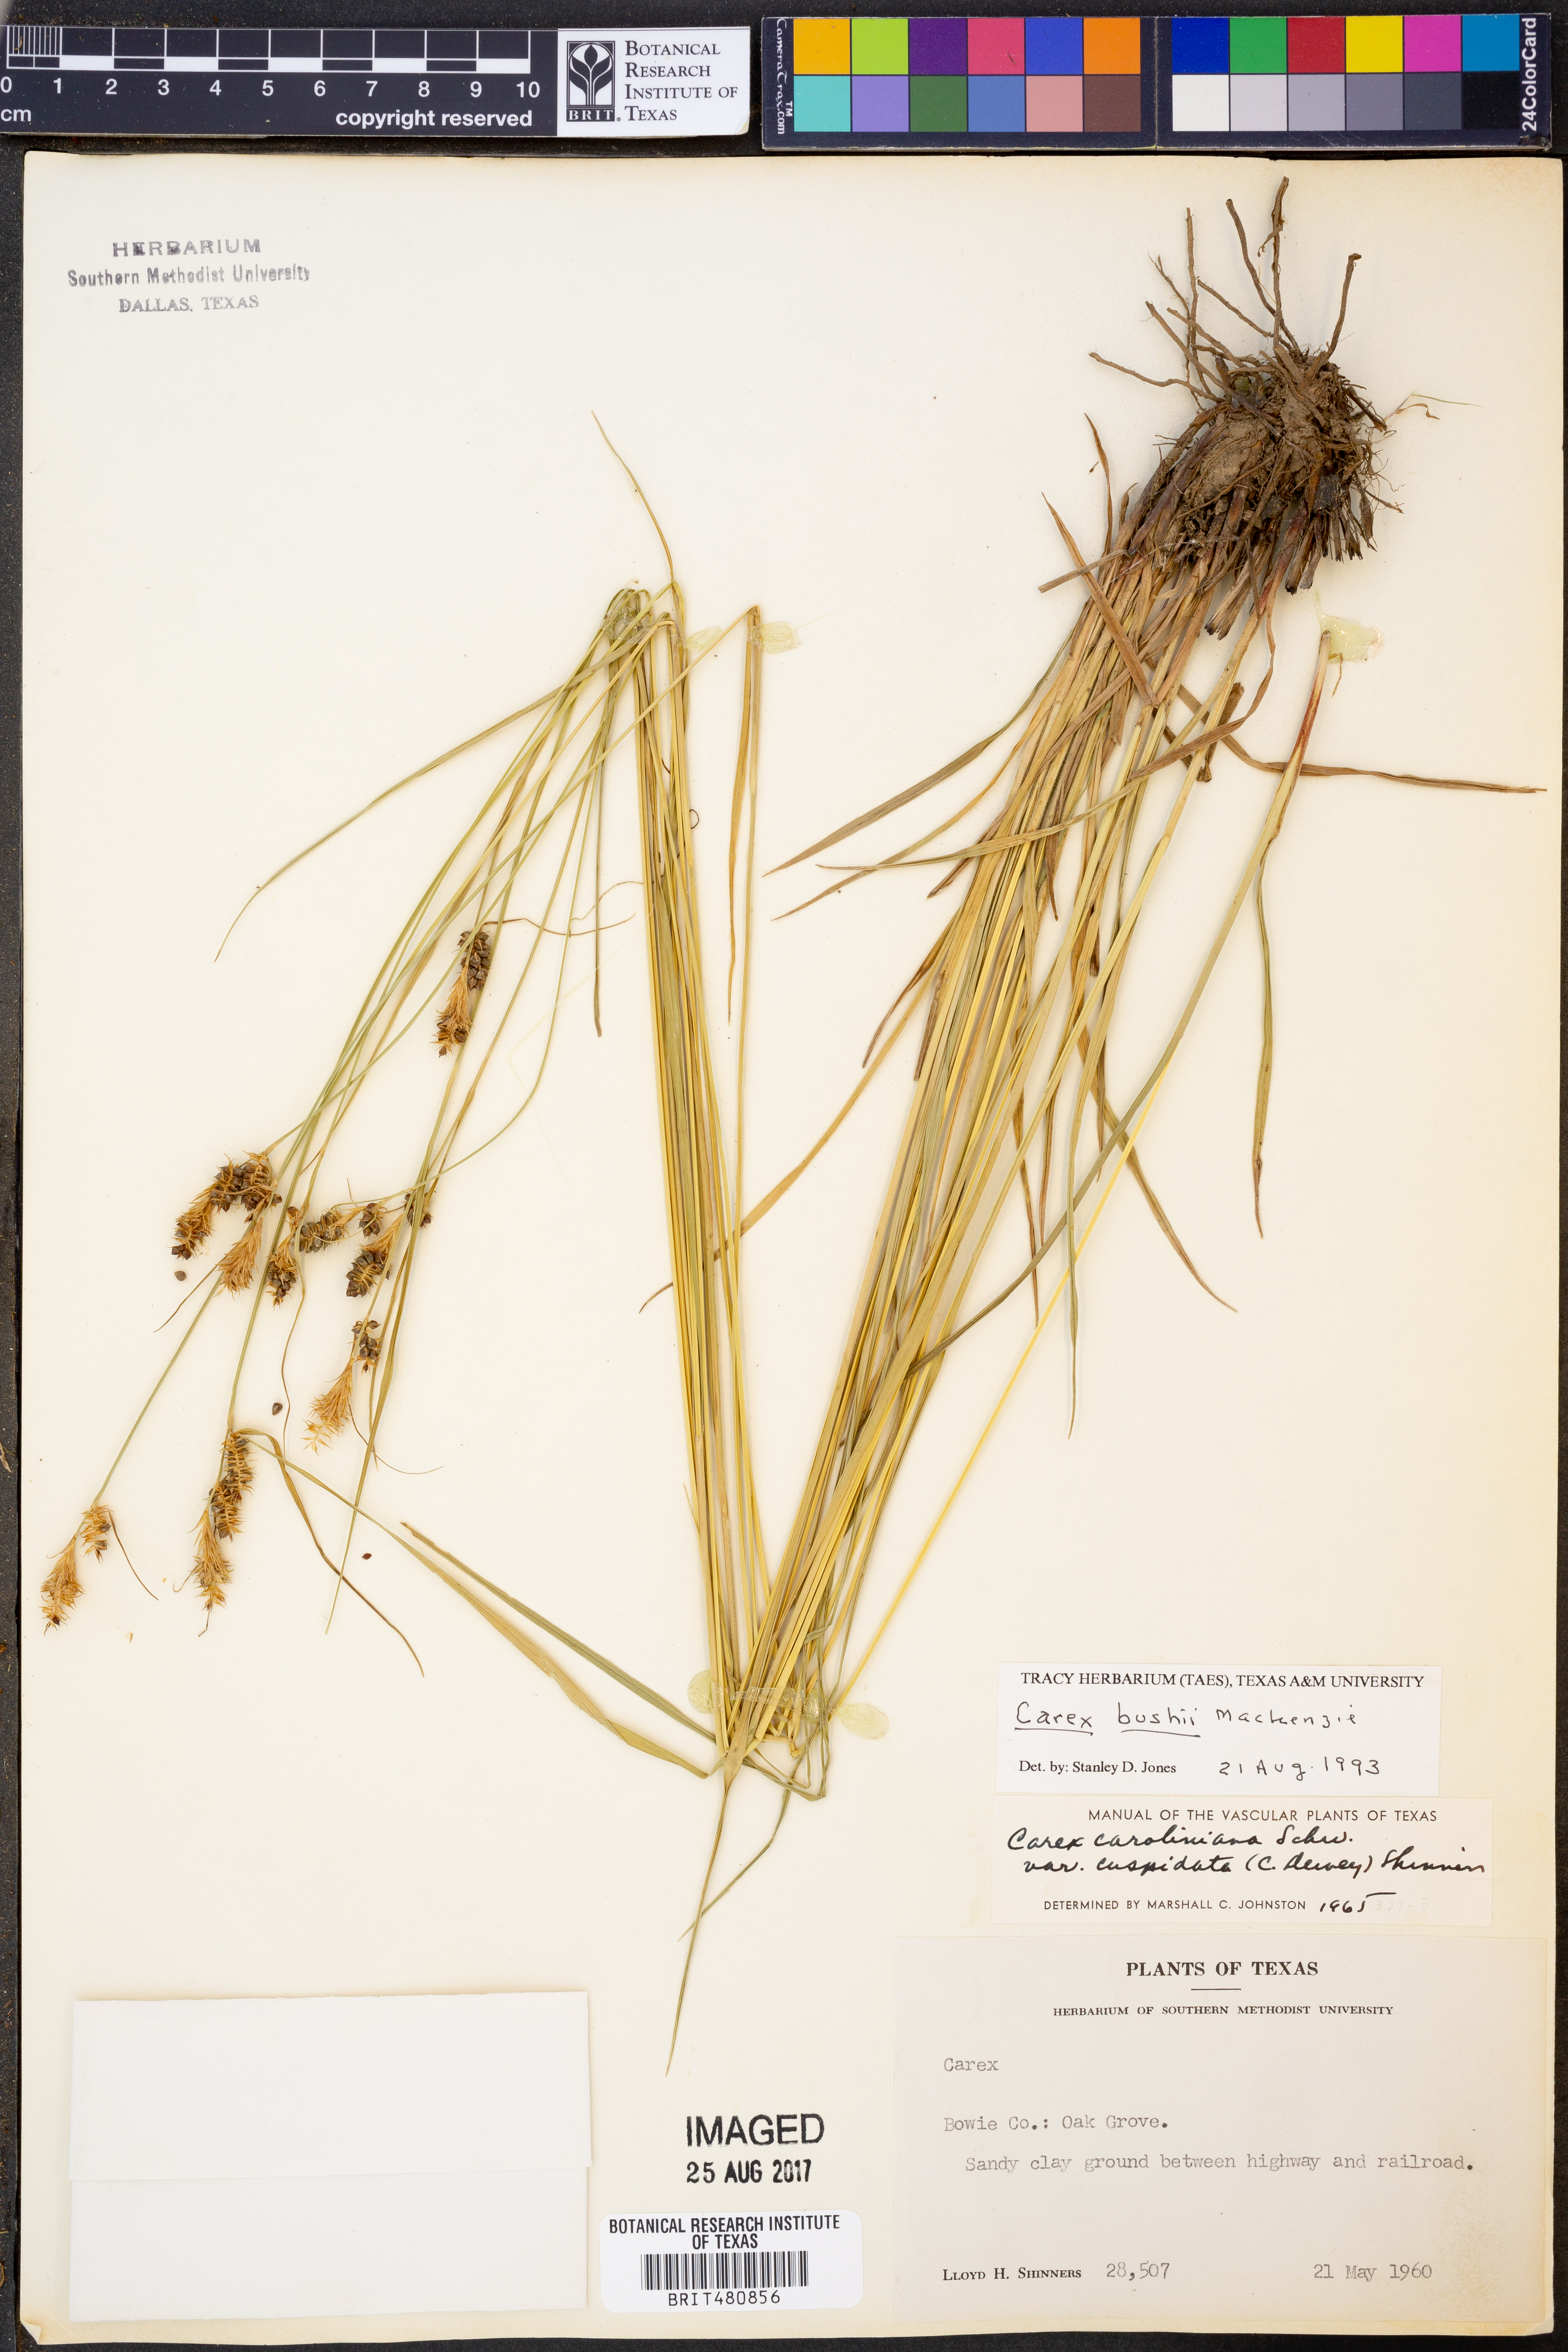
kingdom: Plantae
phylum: Tracheophyta
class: Liliopsida
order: Poales
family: Cyperaceae
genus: Carex
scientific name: Carex bushii
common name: Bush's sedge
